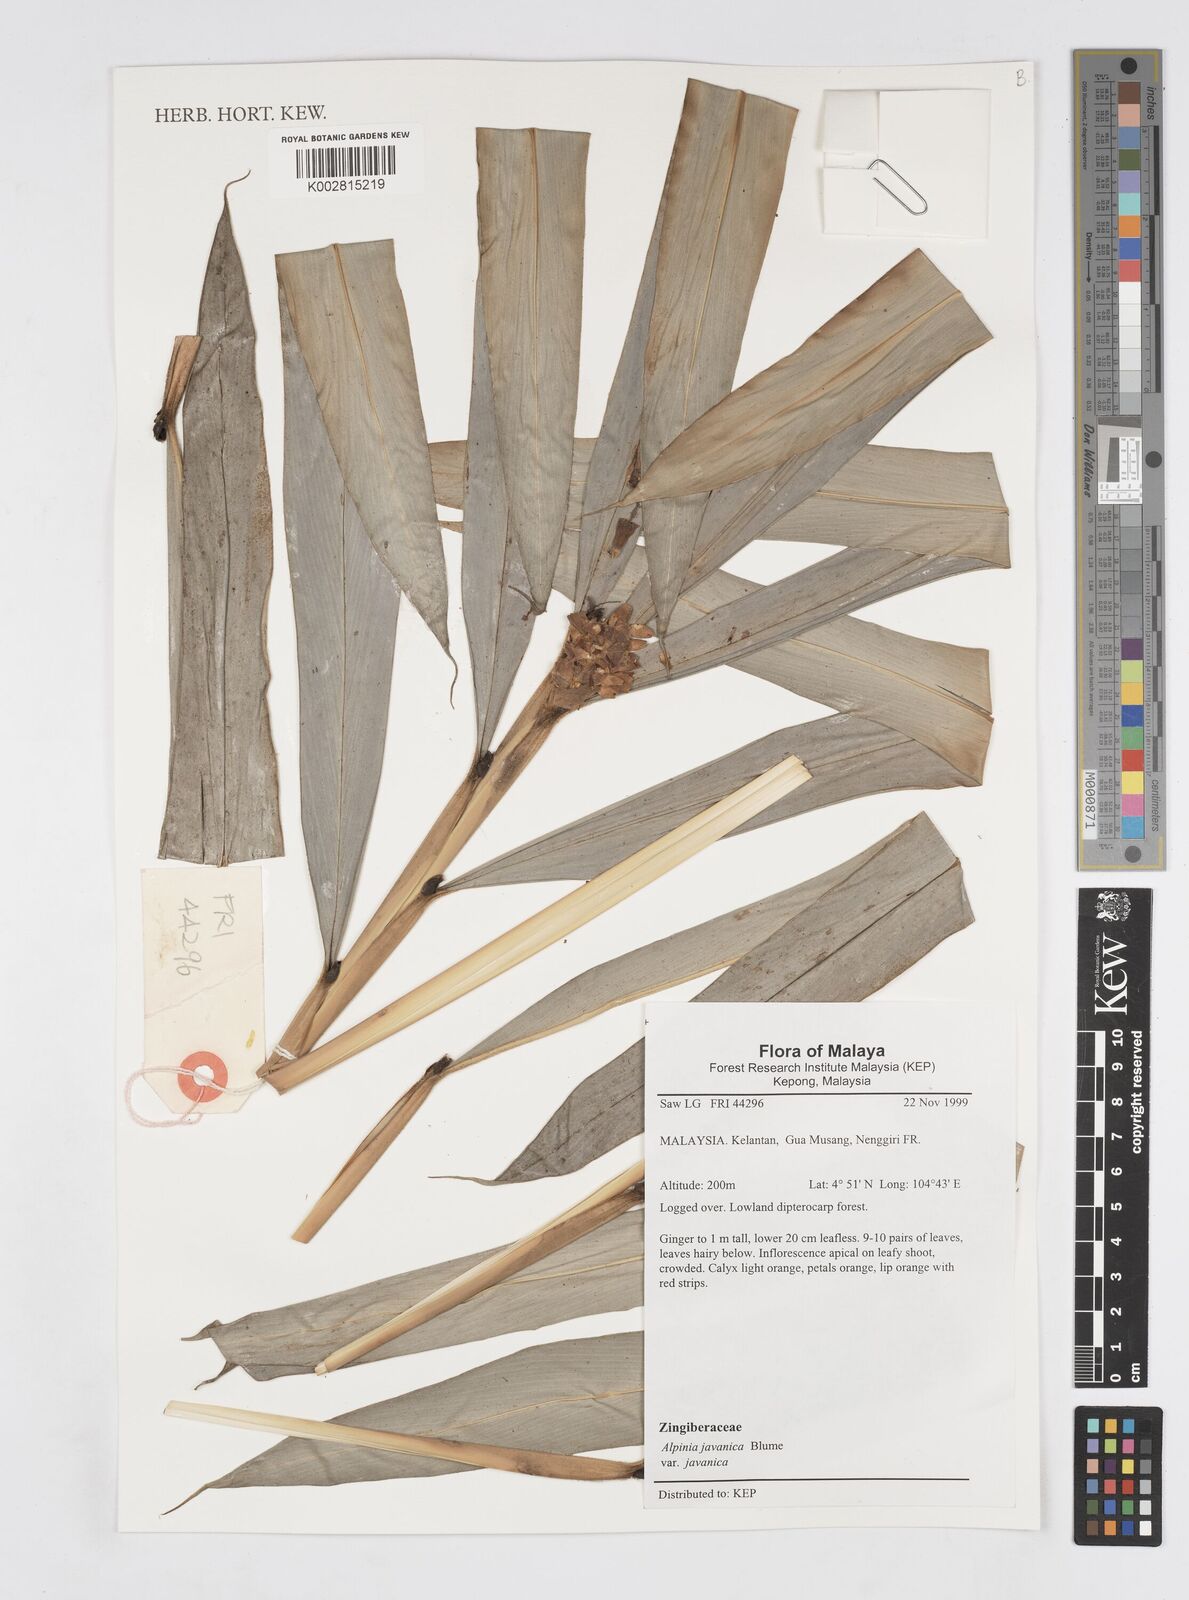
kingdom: Plantae
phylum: Tracheophyta
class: Liliopsida
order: Zingiberales
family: Zingiberaceae
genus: Alpinia
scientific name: Alpinia javanica
